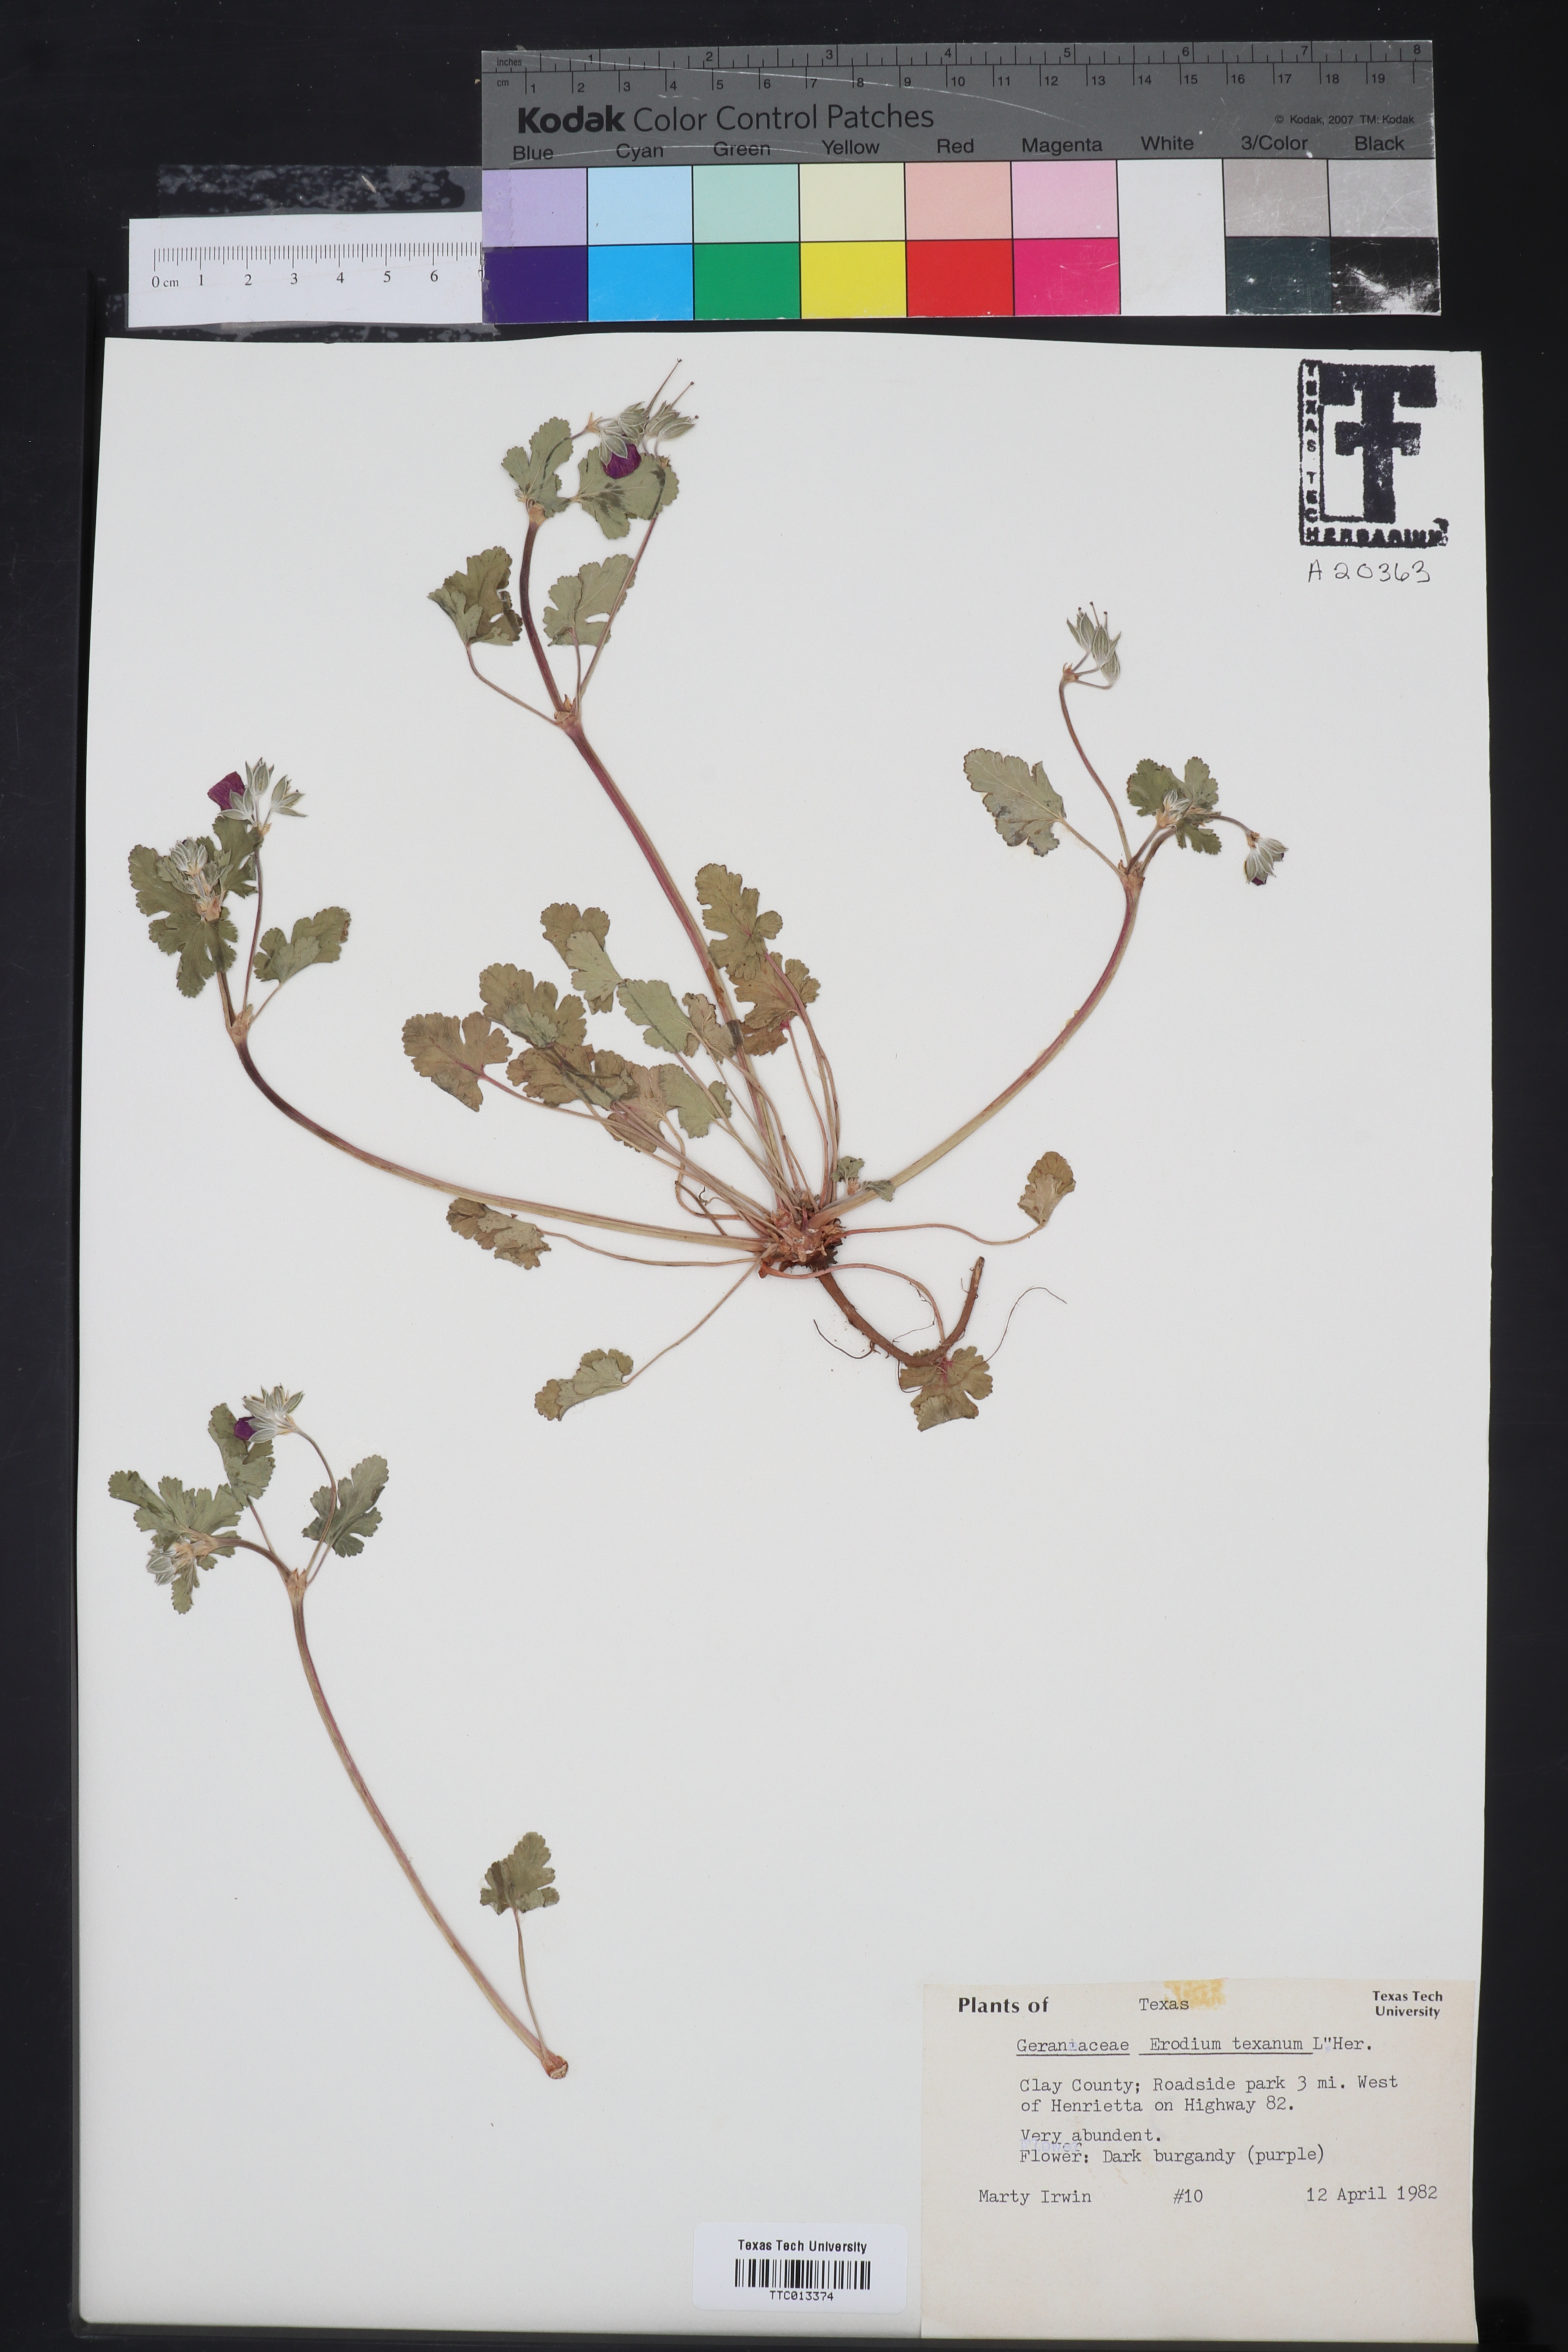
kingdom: Plantae
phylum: Tracheophyta
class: Magnoliopsida
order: Geraniales
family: Geraniaceae
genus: Erodium
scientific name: Erodium texanum
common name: Texas stork's-bill
